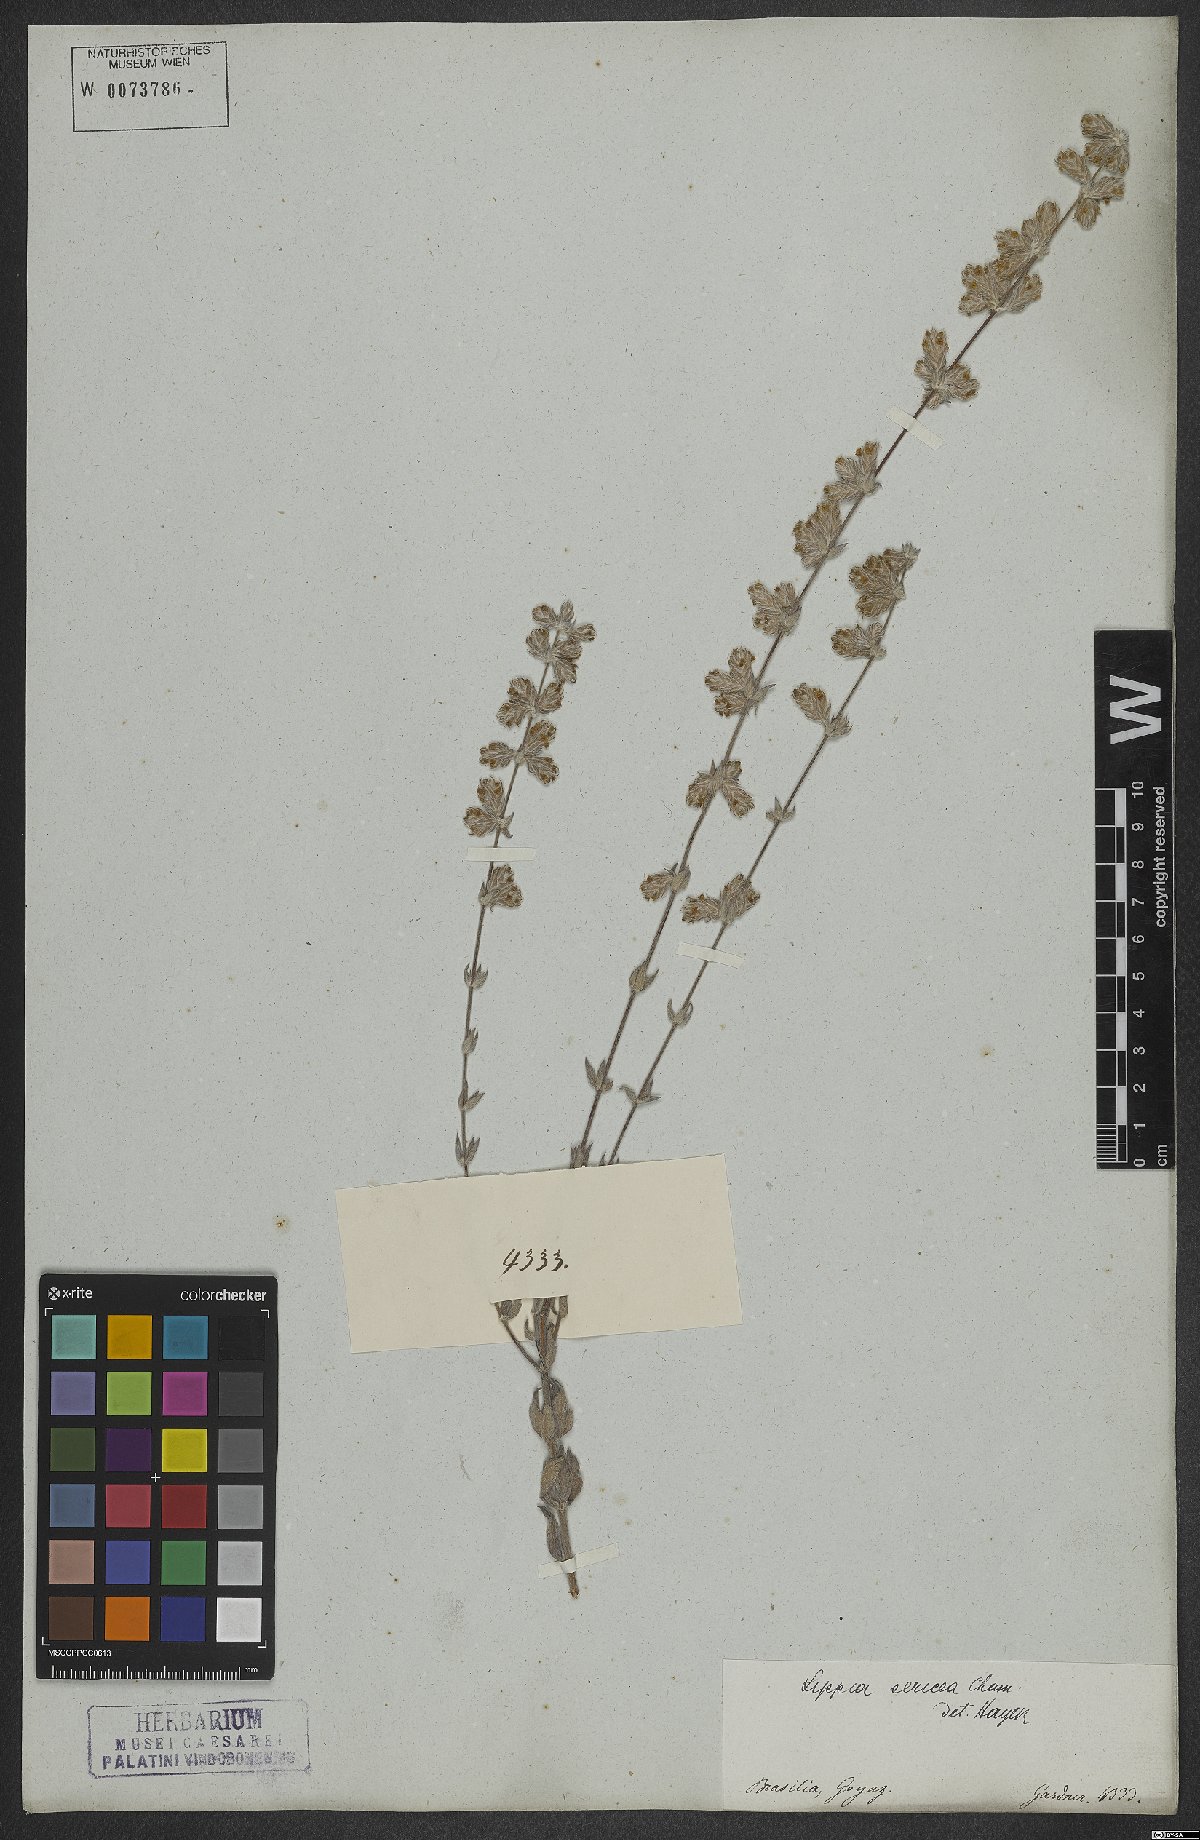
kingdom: Plantae
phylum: Tracheophyta
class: Magnoliopsida
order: Lamiales
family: Verbenaceae
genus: Lippia
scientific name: Lippia sericea
